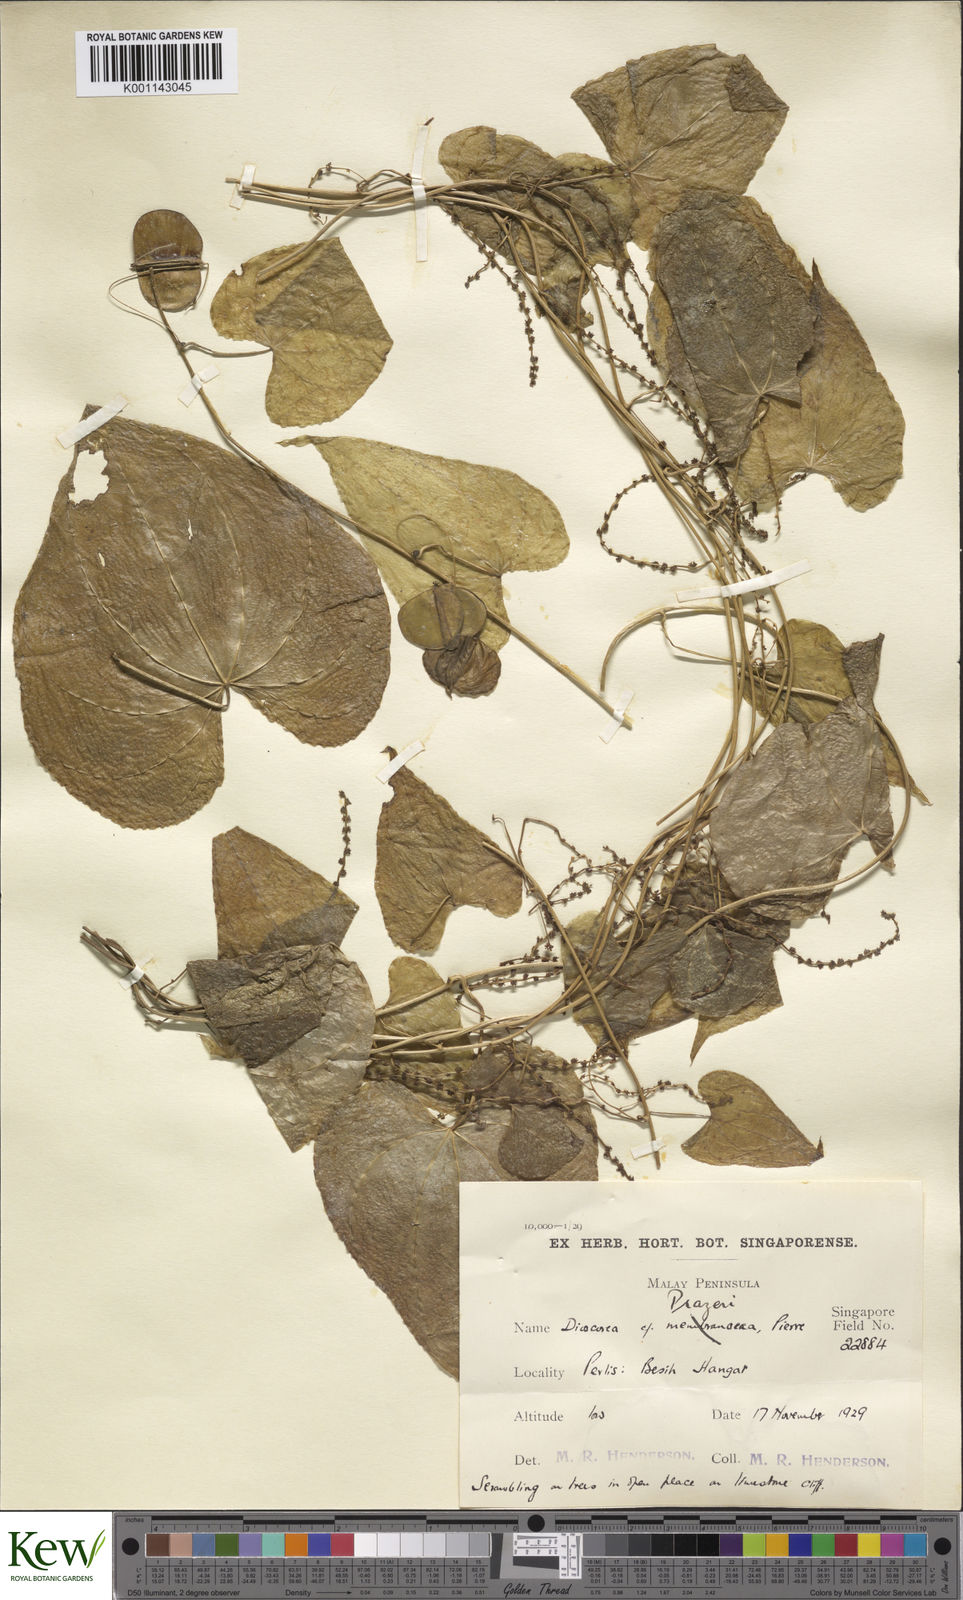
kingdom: Plantae
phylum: Tracheophyta
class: Liliopsida
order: Dioscoreales
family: Dioscoreaceae
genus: Dioscorea
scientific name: Dioscorea prazeri
